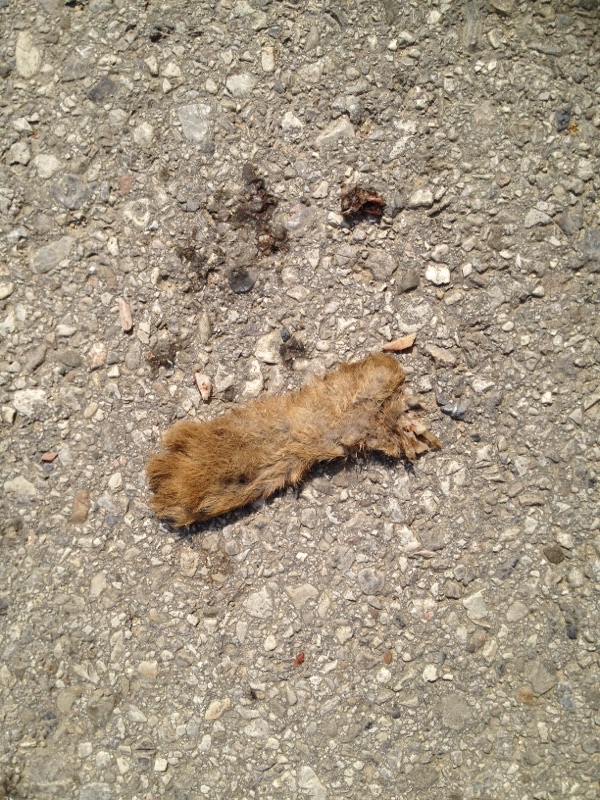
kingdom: Animalia
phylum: Chordata
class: Mammalia
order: Lagomorpha
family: Leporidae
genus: Lepus
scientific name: Lepus europaeus
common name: European hare
